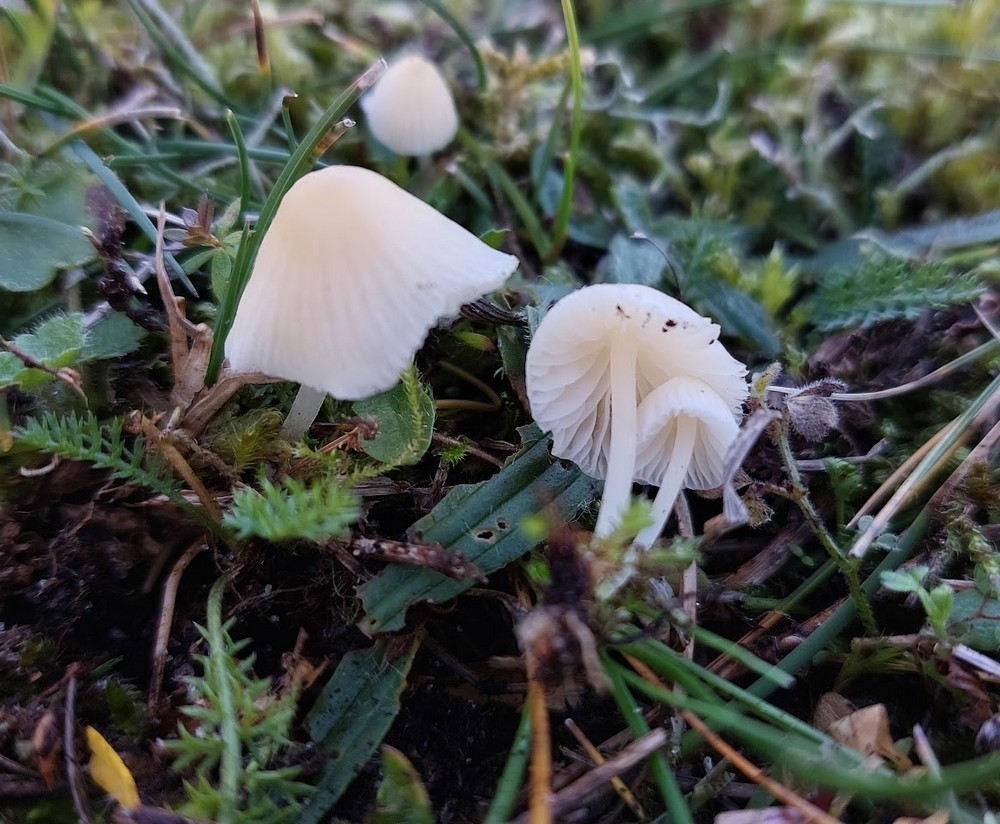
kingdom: Fungi
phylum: Basidiomycota
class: Agaricomycetes
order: Agaricales
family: Mycenaceae
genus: Atheniella
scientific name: Atheniella flavoalba
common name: gulhvid huesvamp
